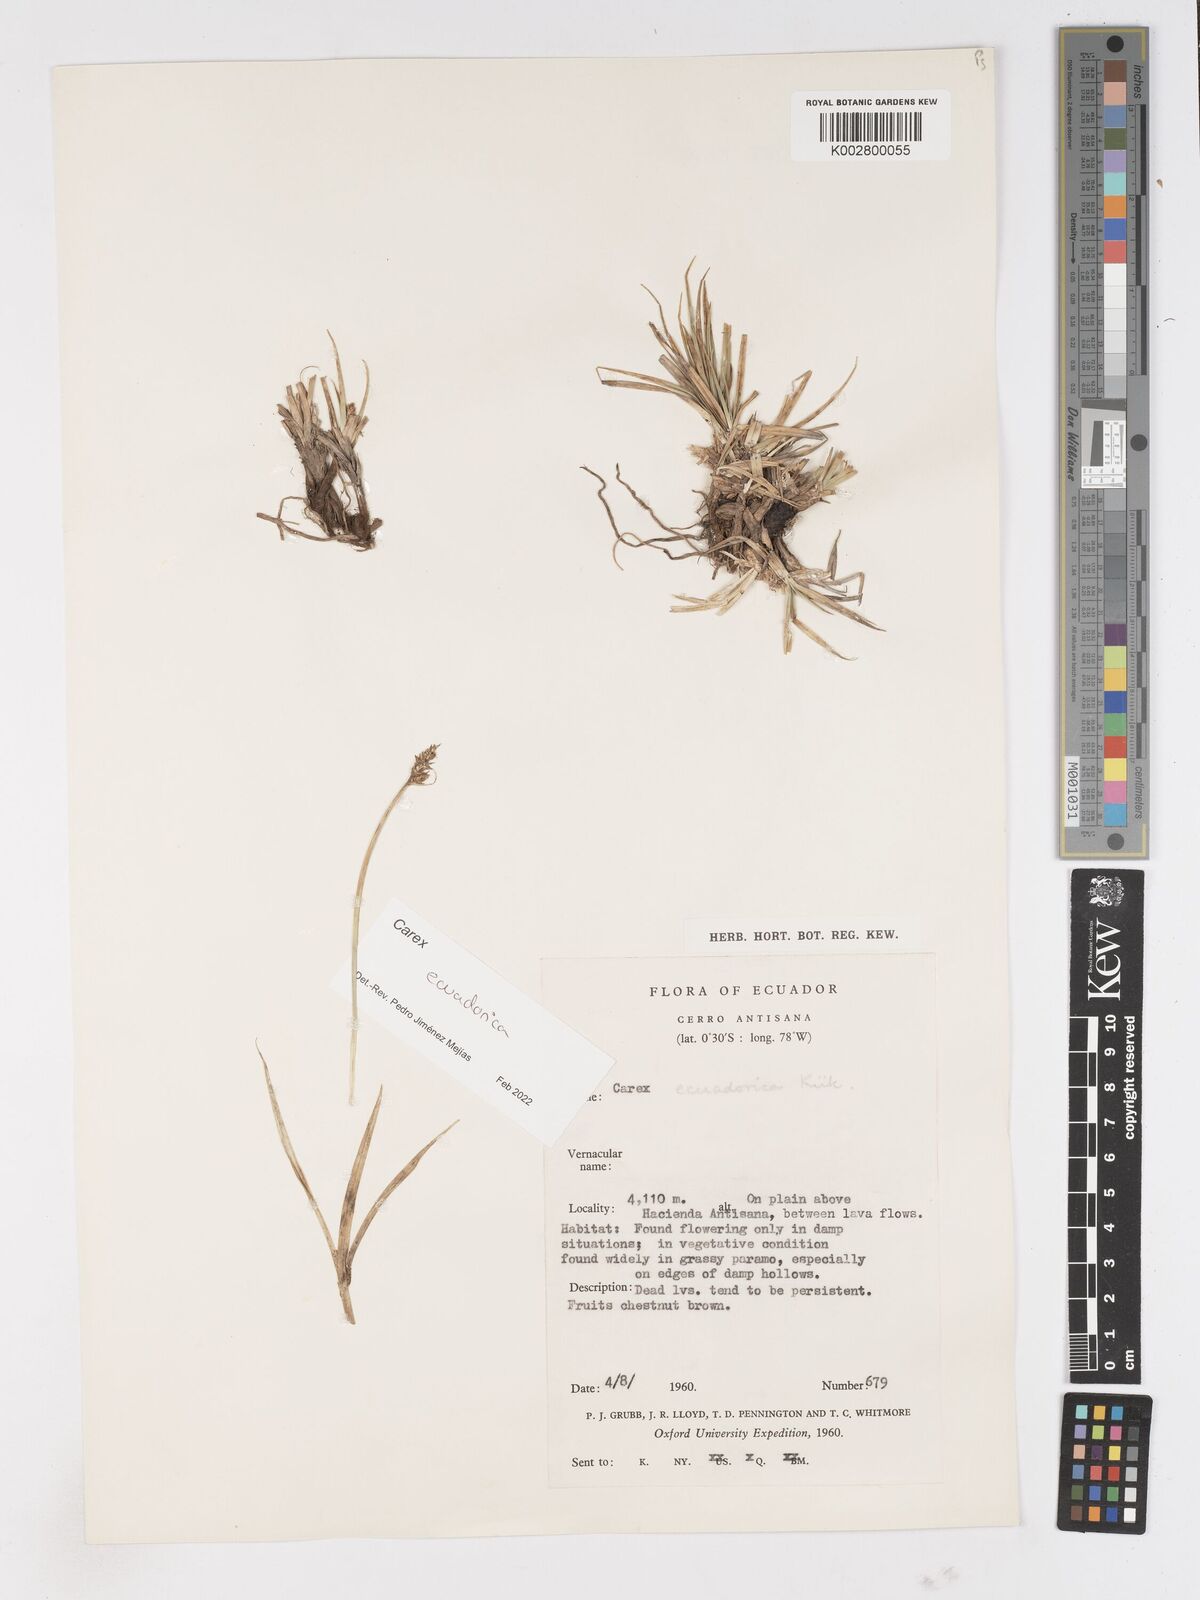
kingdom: Plantae
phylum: Tracheophyta
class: Liliopsida
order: Poales
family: Cyperaceae
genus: Carex
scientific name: Carex ecuadorica
